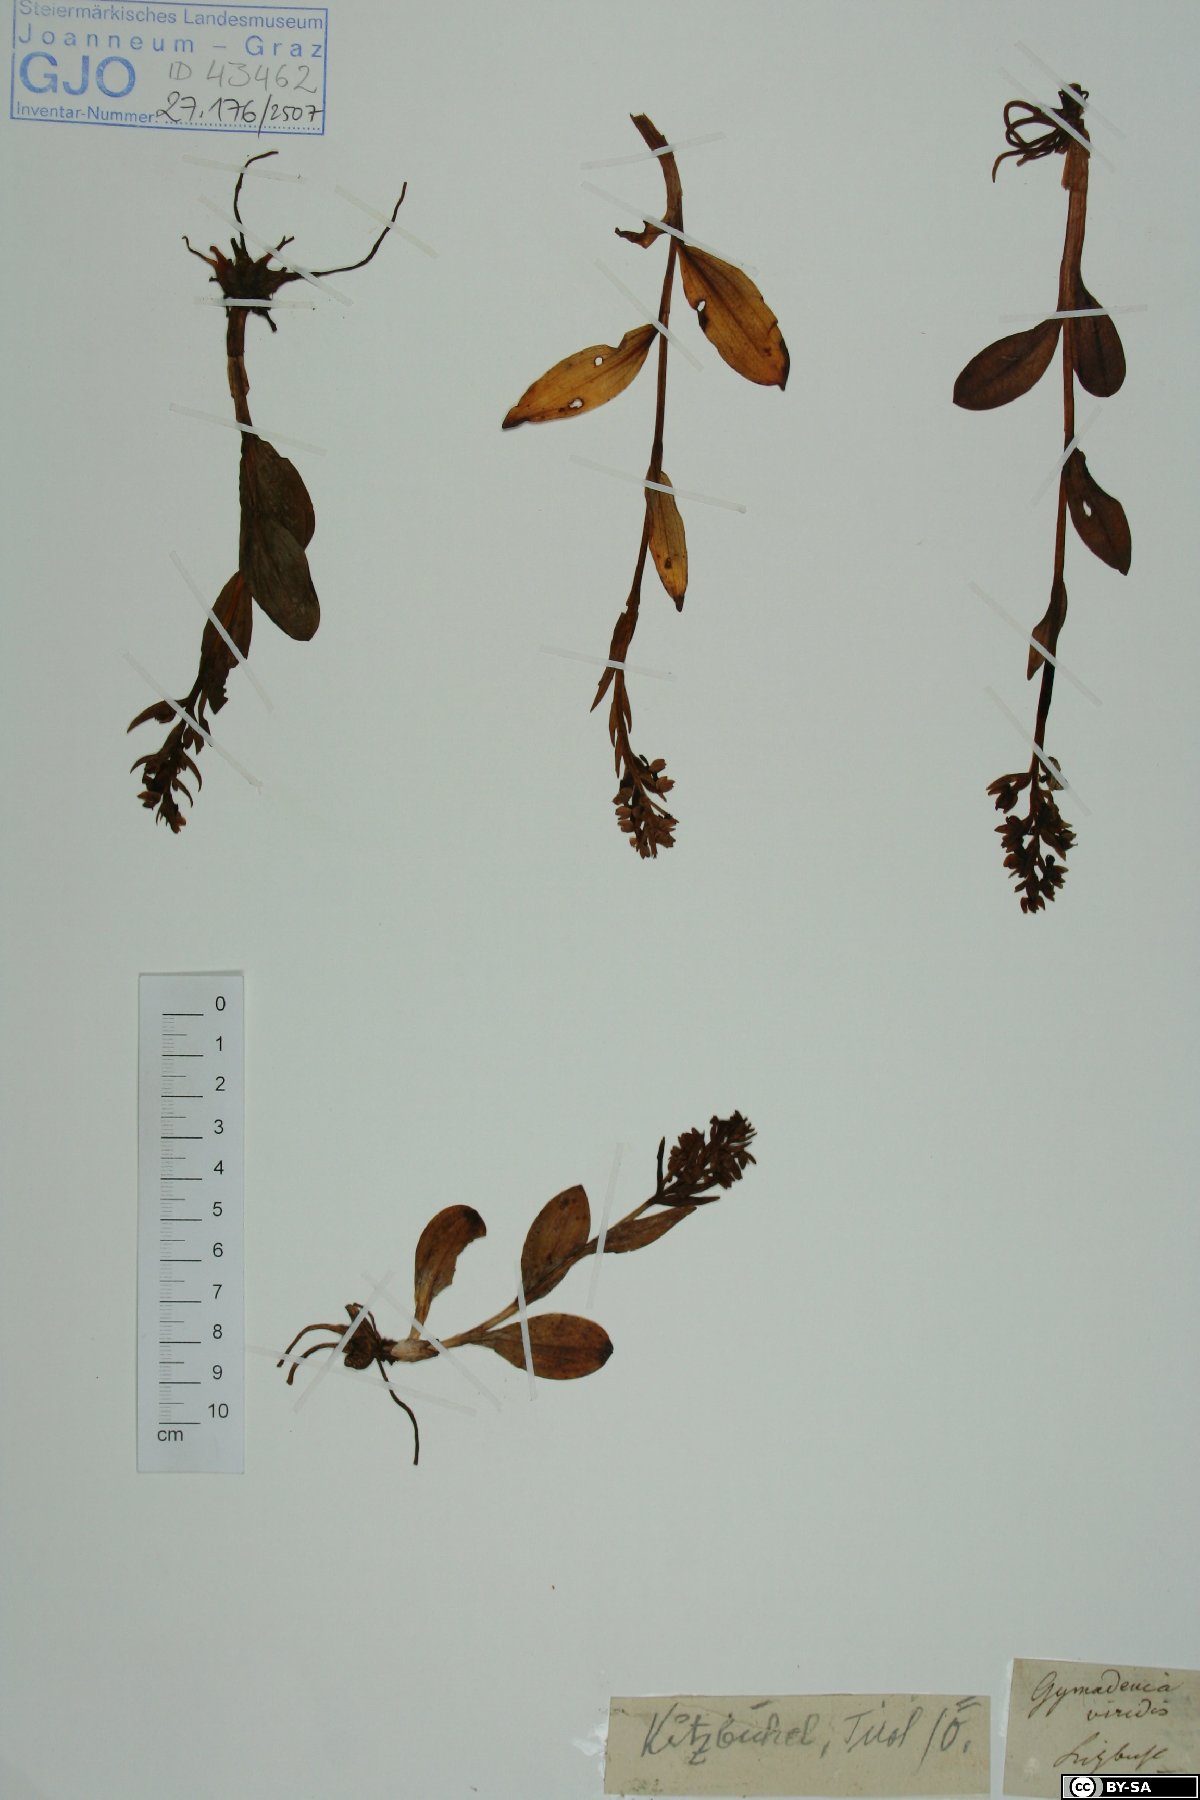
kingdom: Plantae
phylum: Tracheophyta
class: Liliopsida
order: Asparagales
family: Orchidaceae
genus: Dactylorhiza
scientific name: Dactylorhiza viridis
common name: Longbract frog orchid
